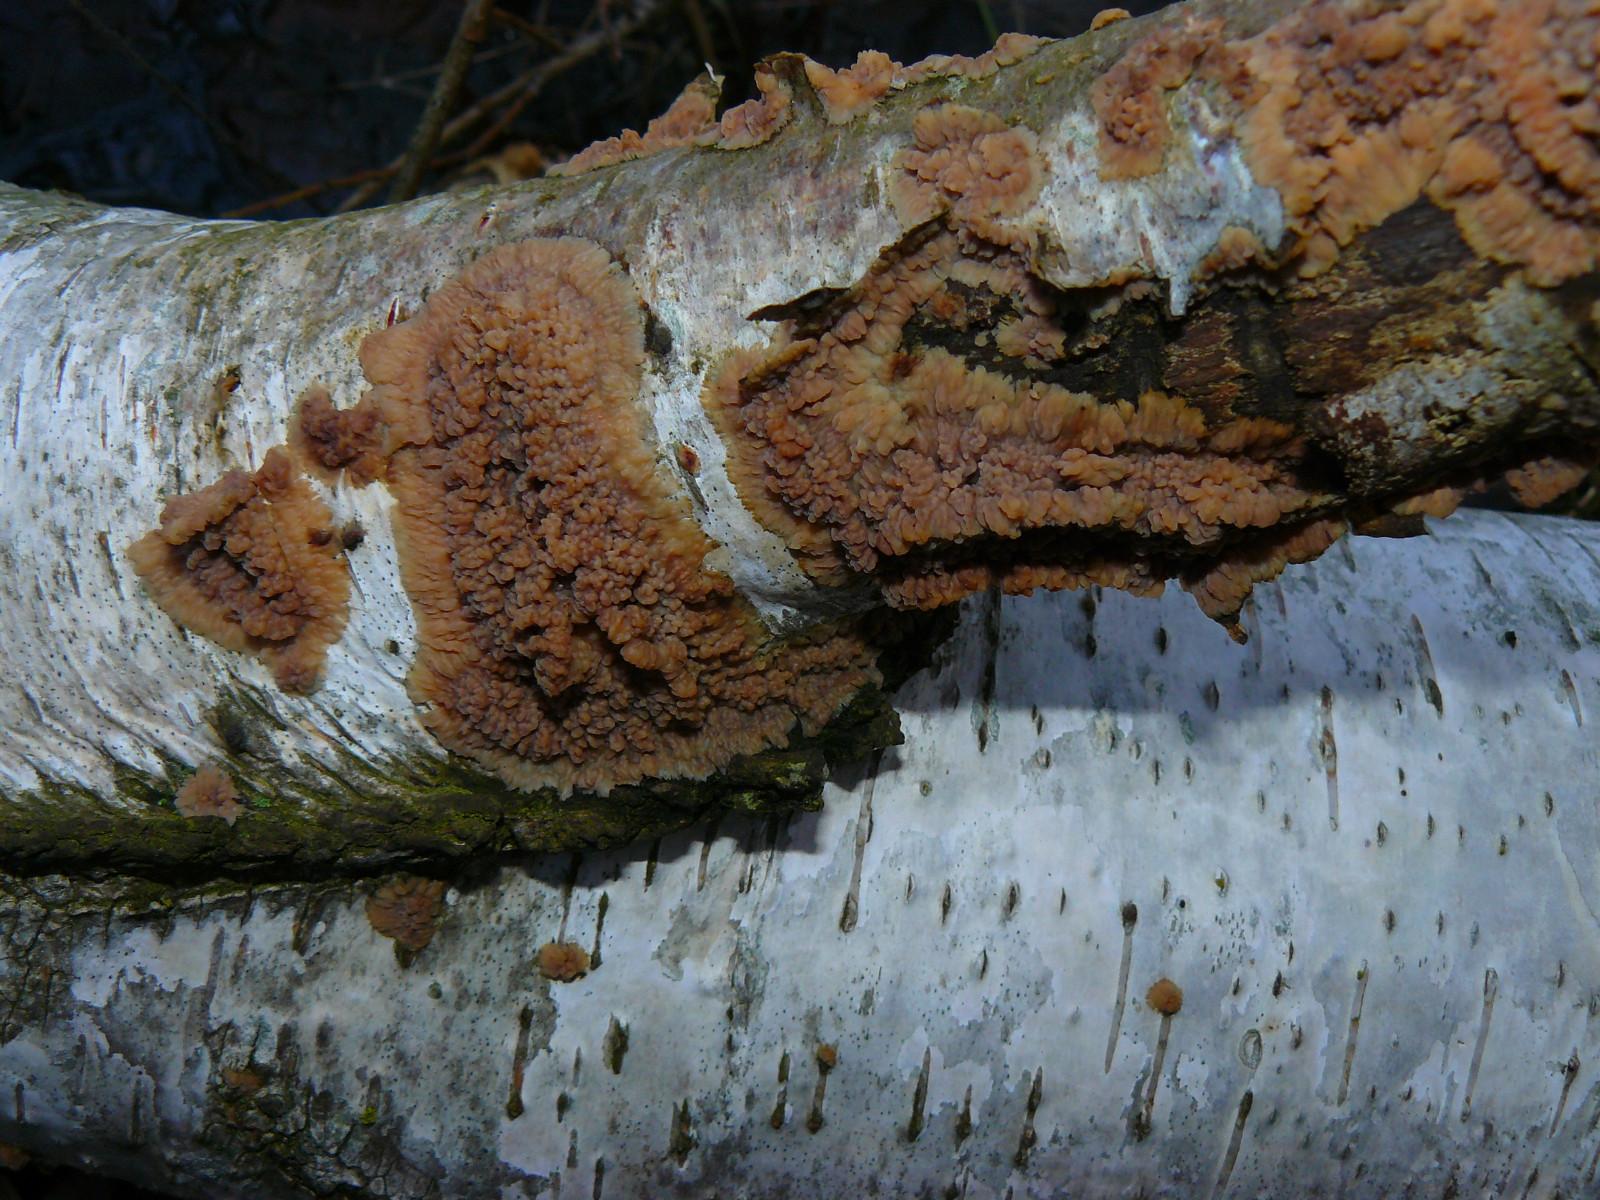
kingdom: Fungi
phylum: Basidiomycota
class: Agaricomycetes
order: Polyporales
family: Meruliaceae
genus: Phlebia
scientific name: Phlebia radiata
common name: stråle-åresvamp
